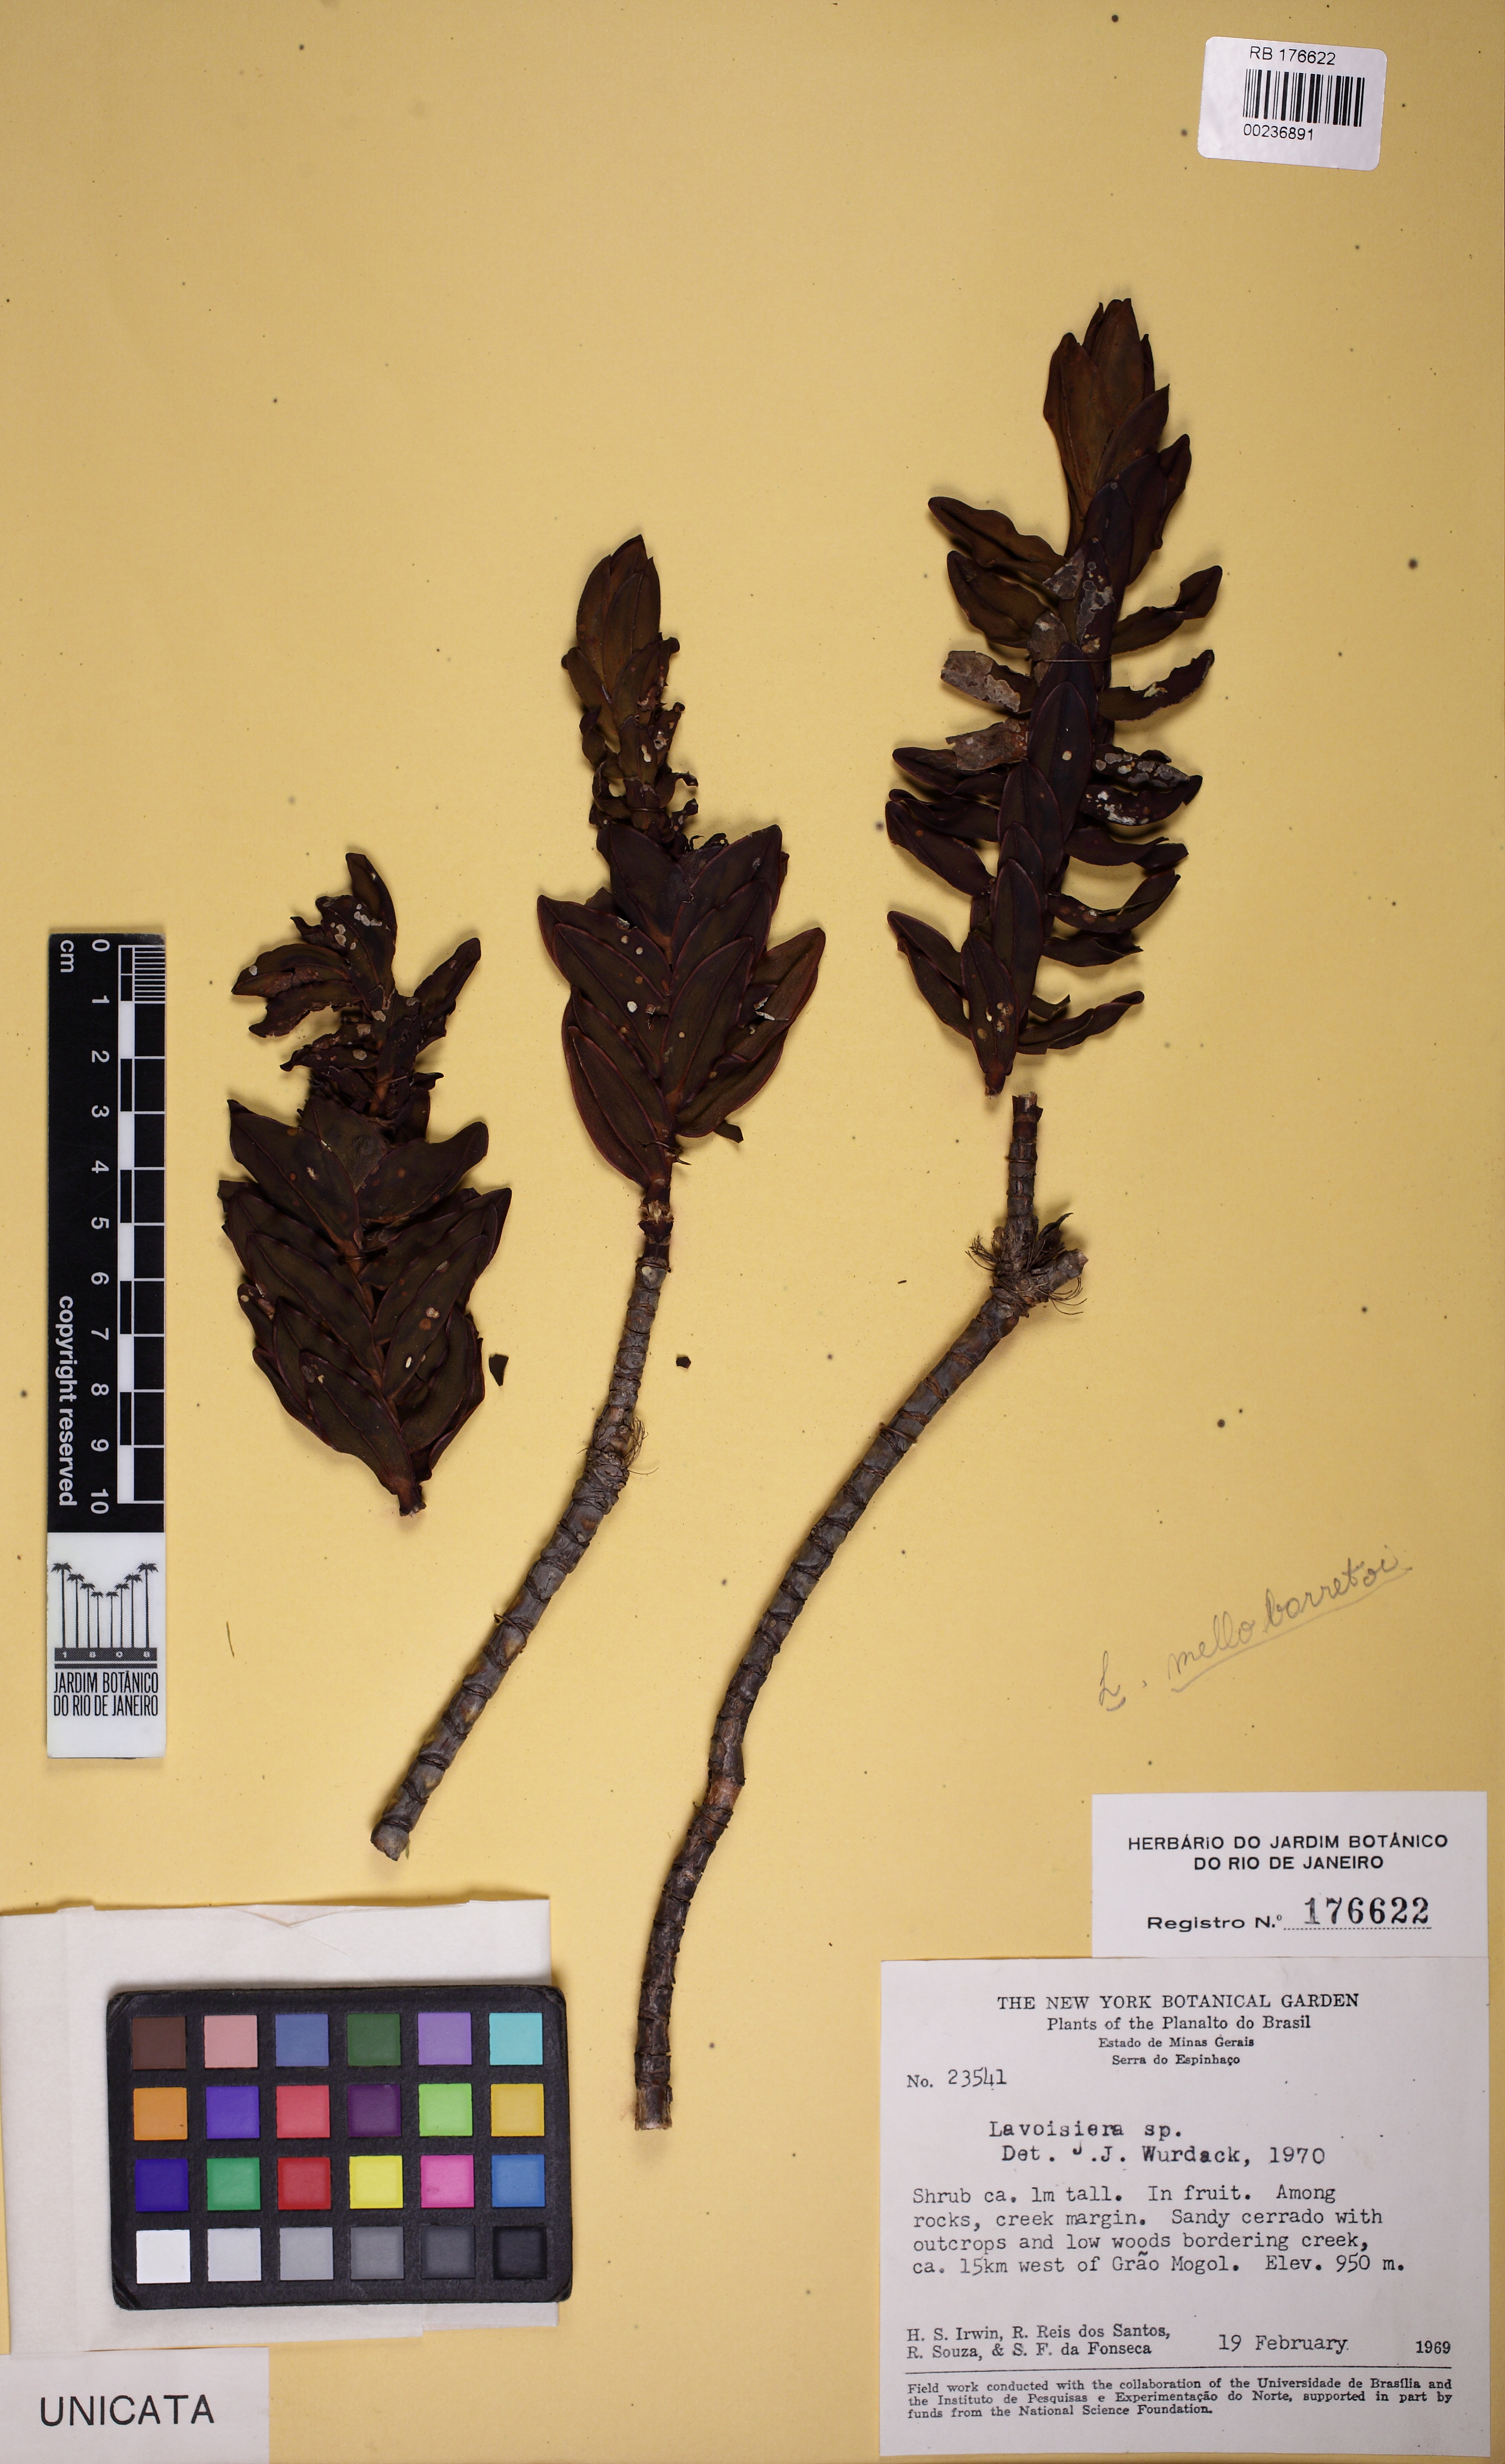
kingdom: Plantae
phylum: Tracheophyta
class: Magnoliopsida
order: Myrtales
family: Melastomataceae
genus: Microlicia
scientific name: Microlicia
